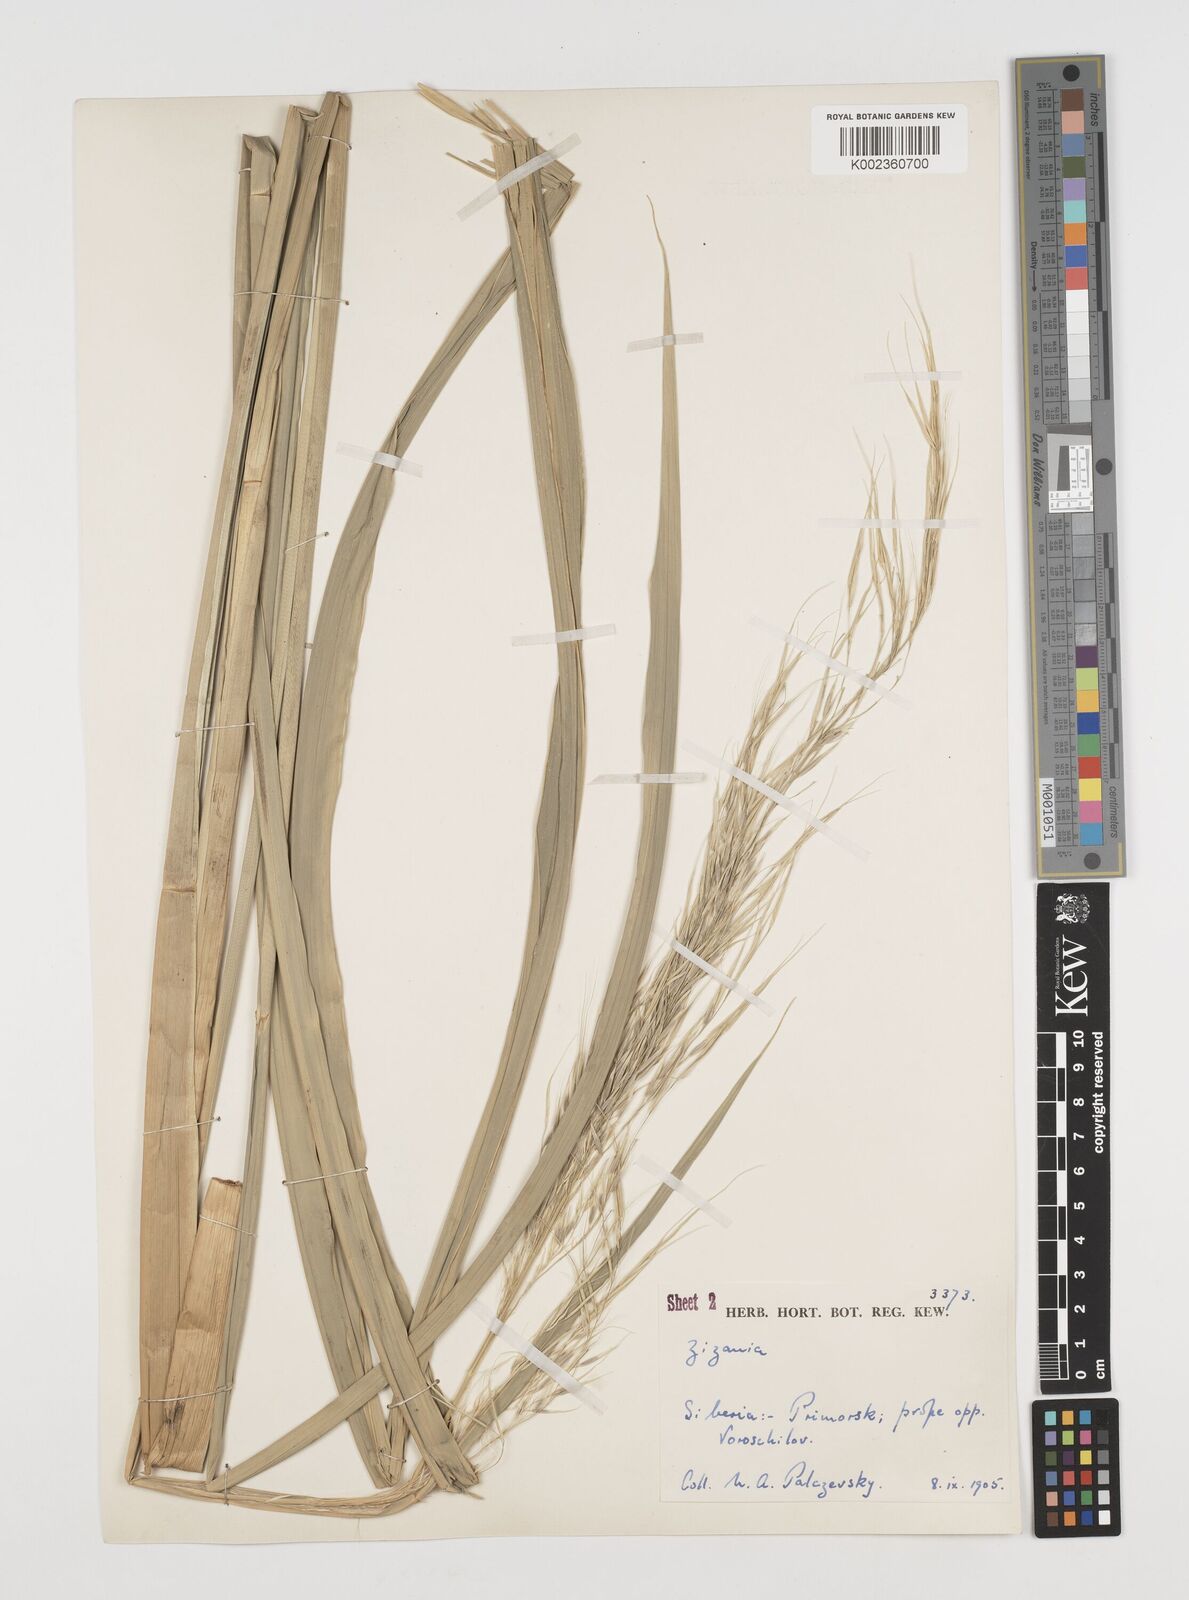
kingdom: Plantae
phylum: Tracheophyta
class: Liliopsida
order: Poales
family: Poaceae
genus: Zizania
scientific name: Zizania latifolia
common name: Manchurian wildrice
